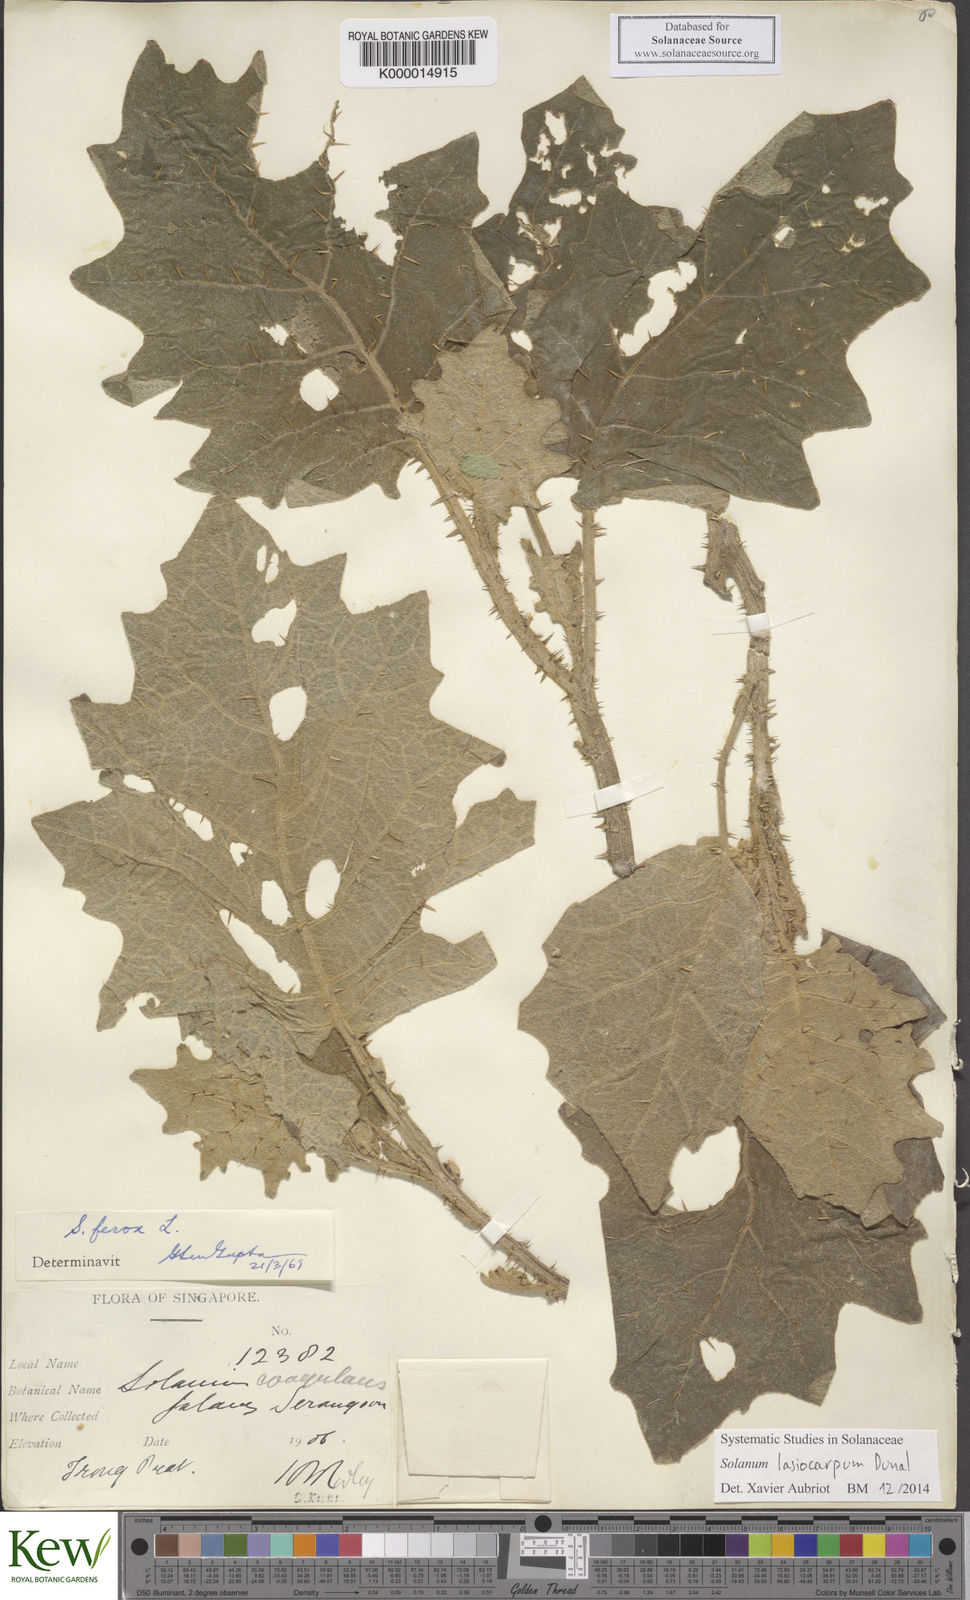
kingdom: Plantae
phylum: Tracheophyta
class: Magnoliopsida
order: Solanales
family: Solanaceae
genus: Solanum
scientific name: Solanum lasiocarpum
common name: Indian nightshade
